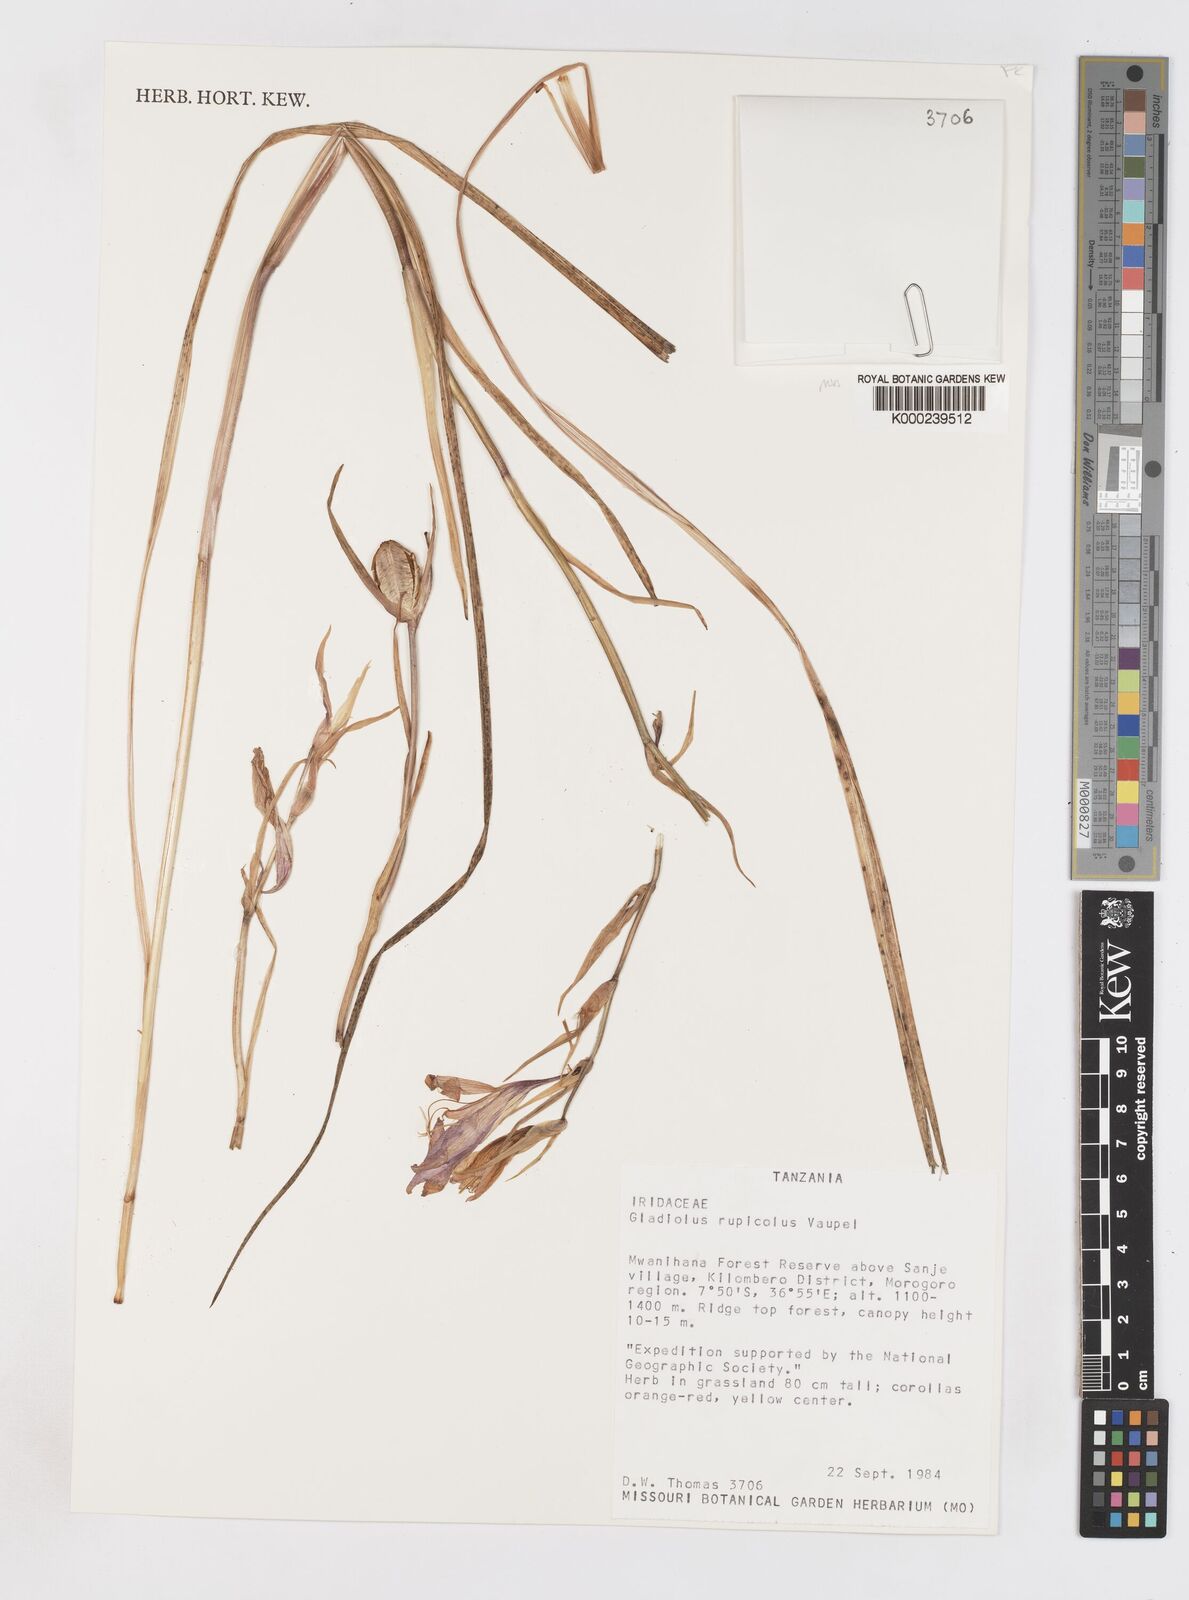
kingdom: Plantae
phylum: Tracheophyta
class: Liliopsida
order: Asparagales
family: Iridaceae
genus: Gladiolus
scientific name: Gladiolus rupicola
